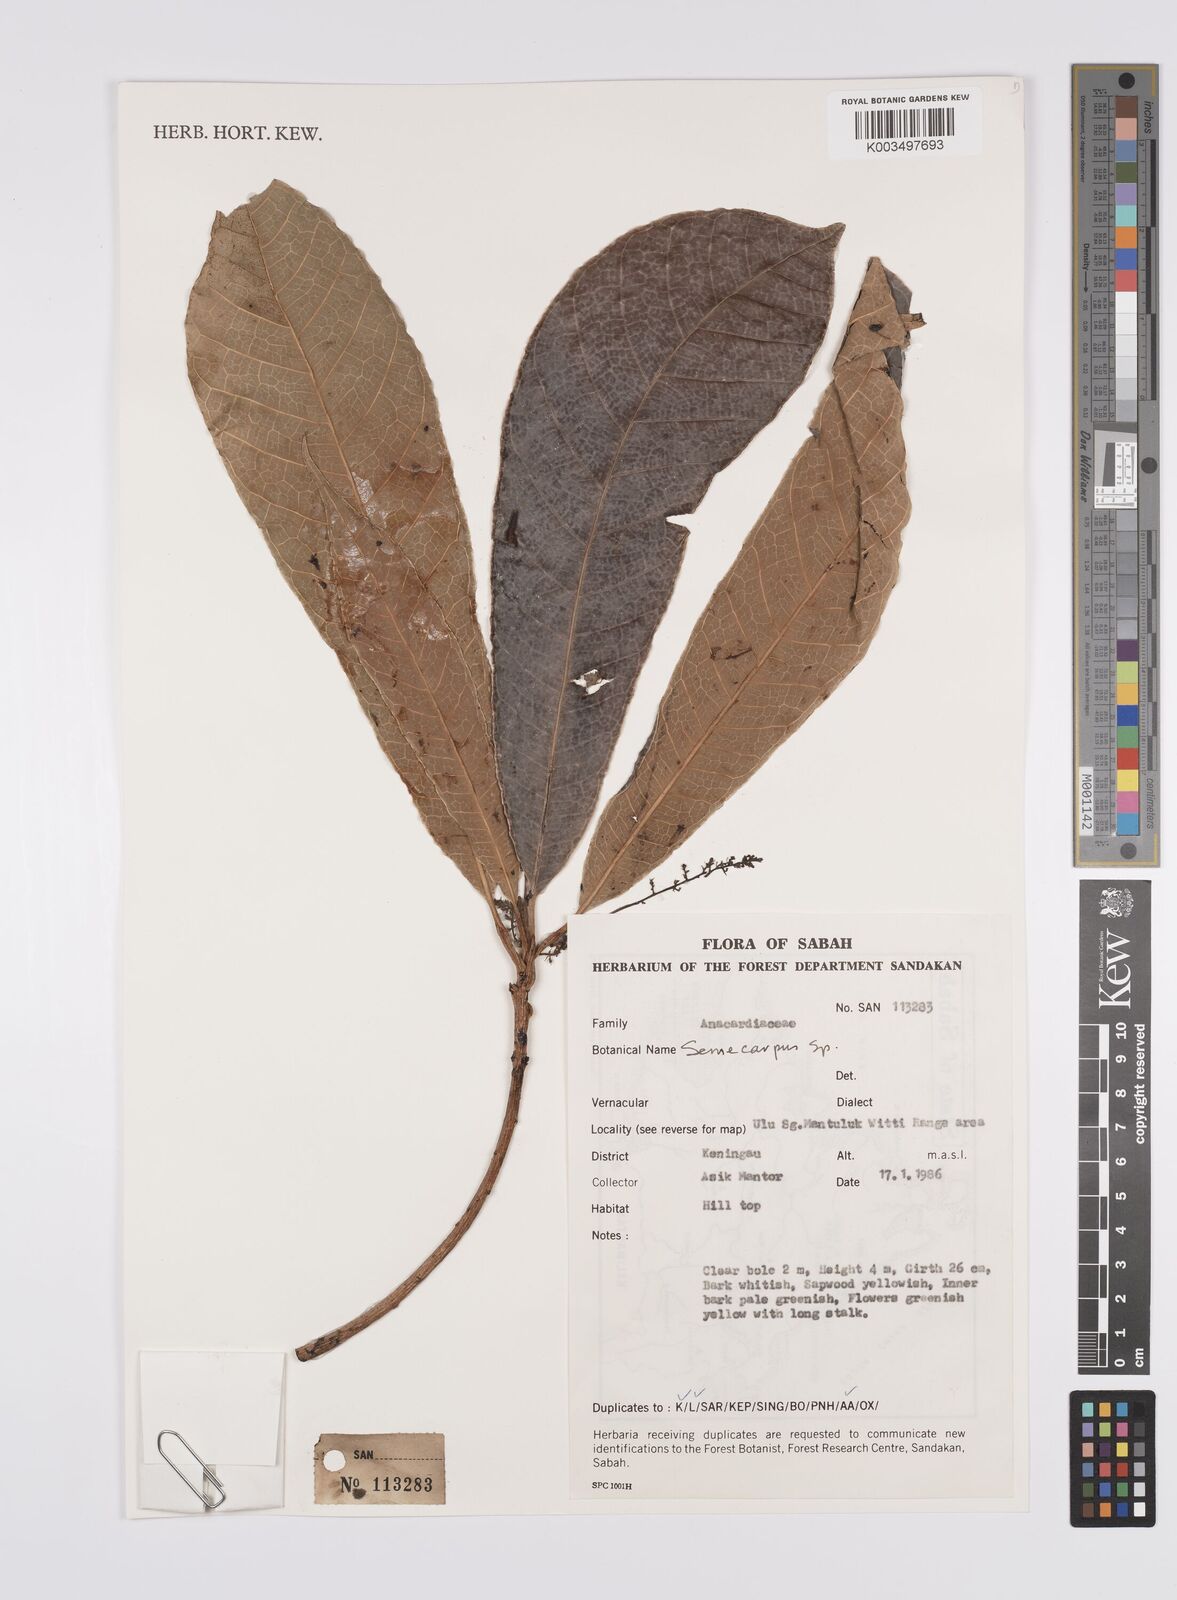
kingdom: Plantae
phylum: Tracheophyta
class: Magnoliopsida
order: Sapindales
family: Anacardiaceae
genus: Semecarpus
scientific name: Semecarpus
